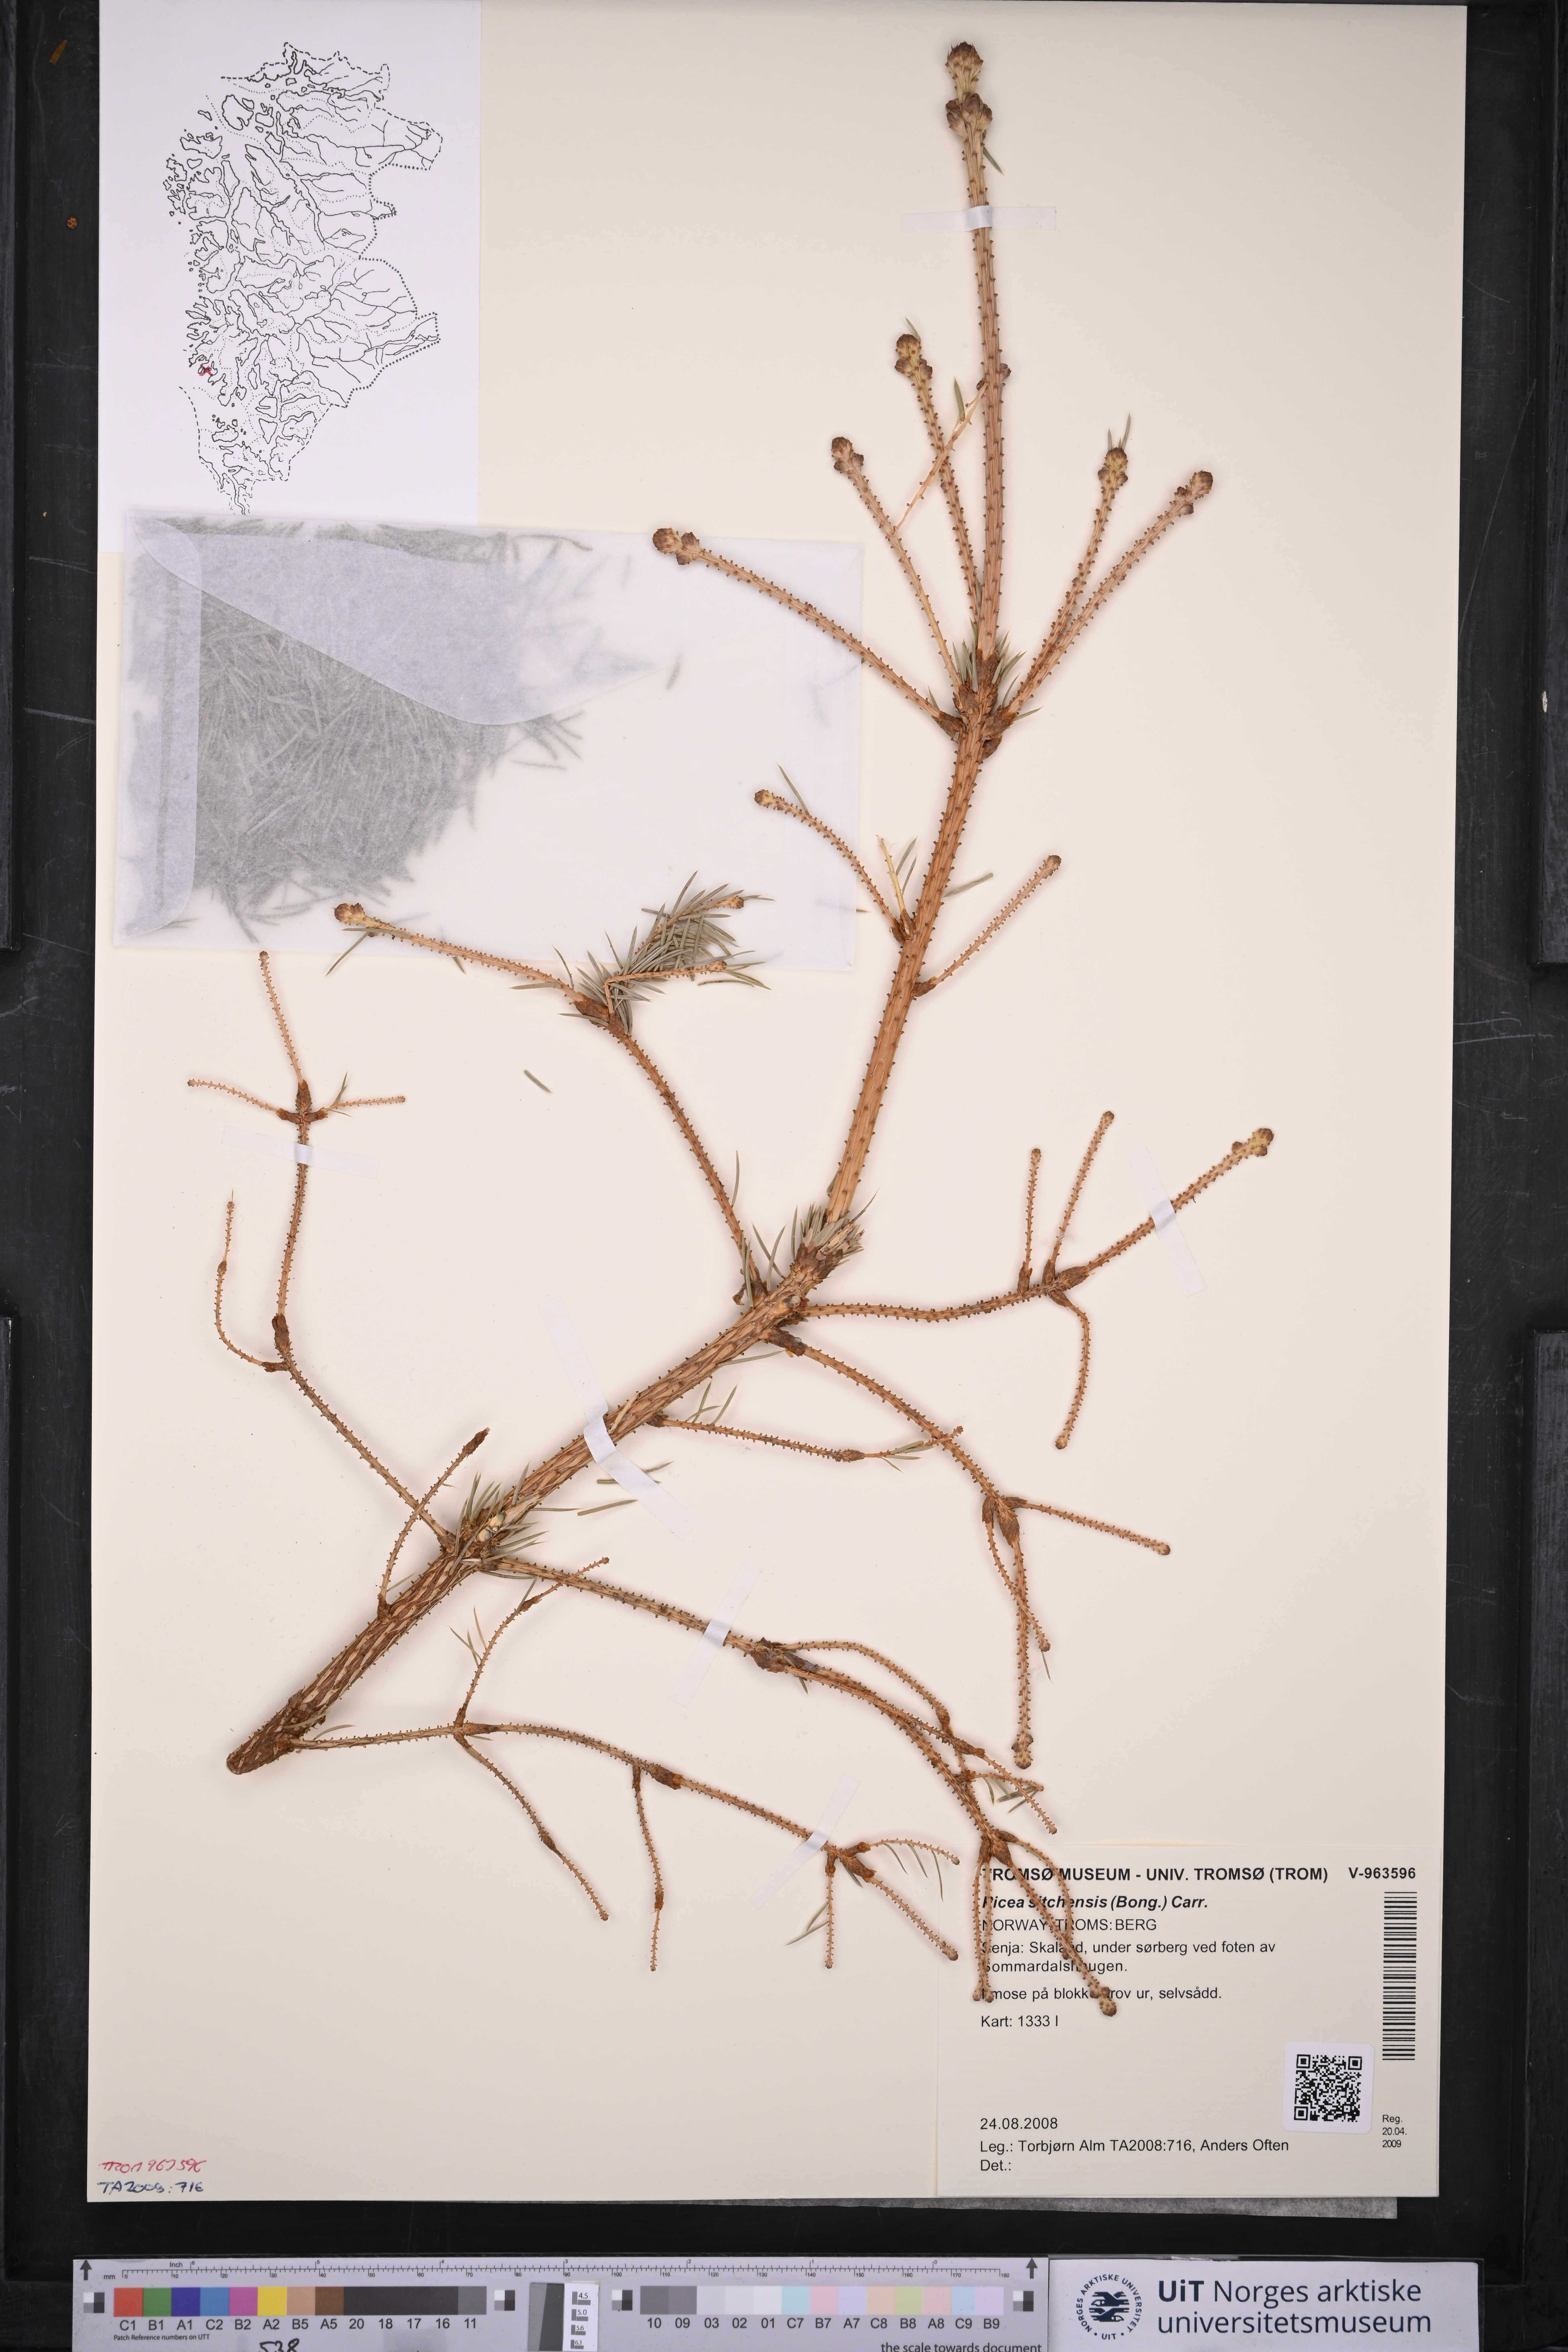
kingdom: Plantae
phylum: Tracheophyta
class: Pinopsida
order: Pinales
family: Pinaceae
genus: Picea
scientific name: Picea sitchensis
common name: Sitka spruce
